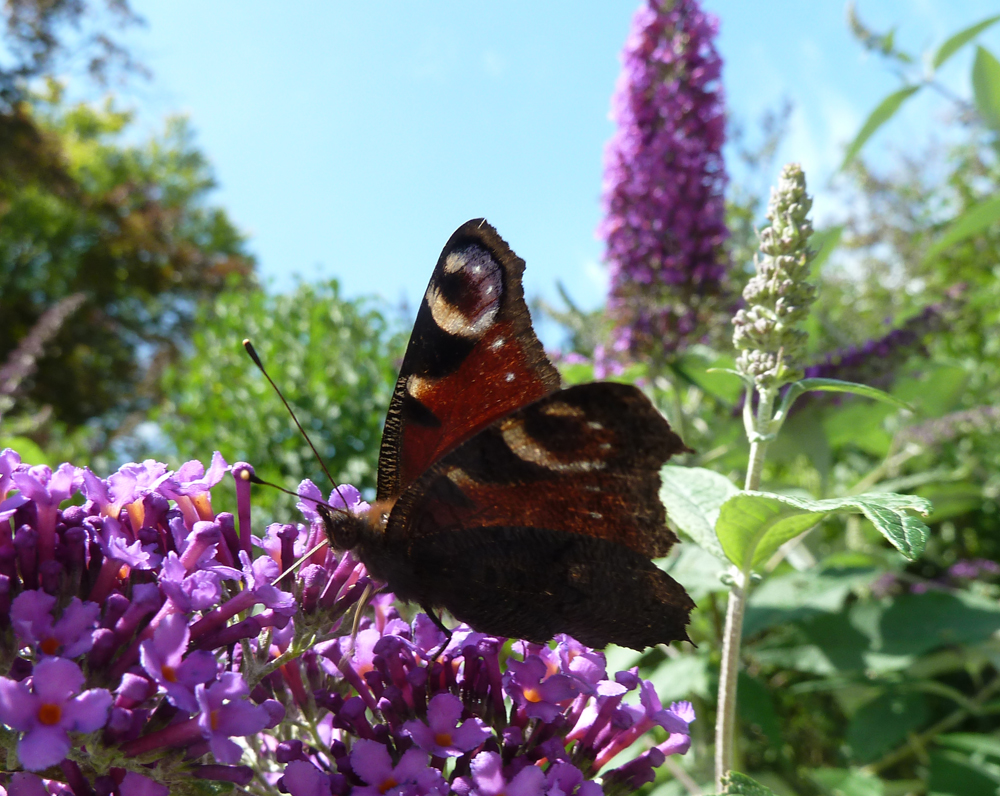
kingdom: Animalia
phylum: Arthropoda
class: Insecta
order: Lepidoptera
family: Nymphalidae
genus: Aglais
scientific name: Aglais io
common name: Peacock
